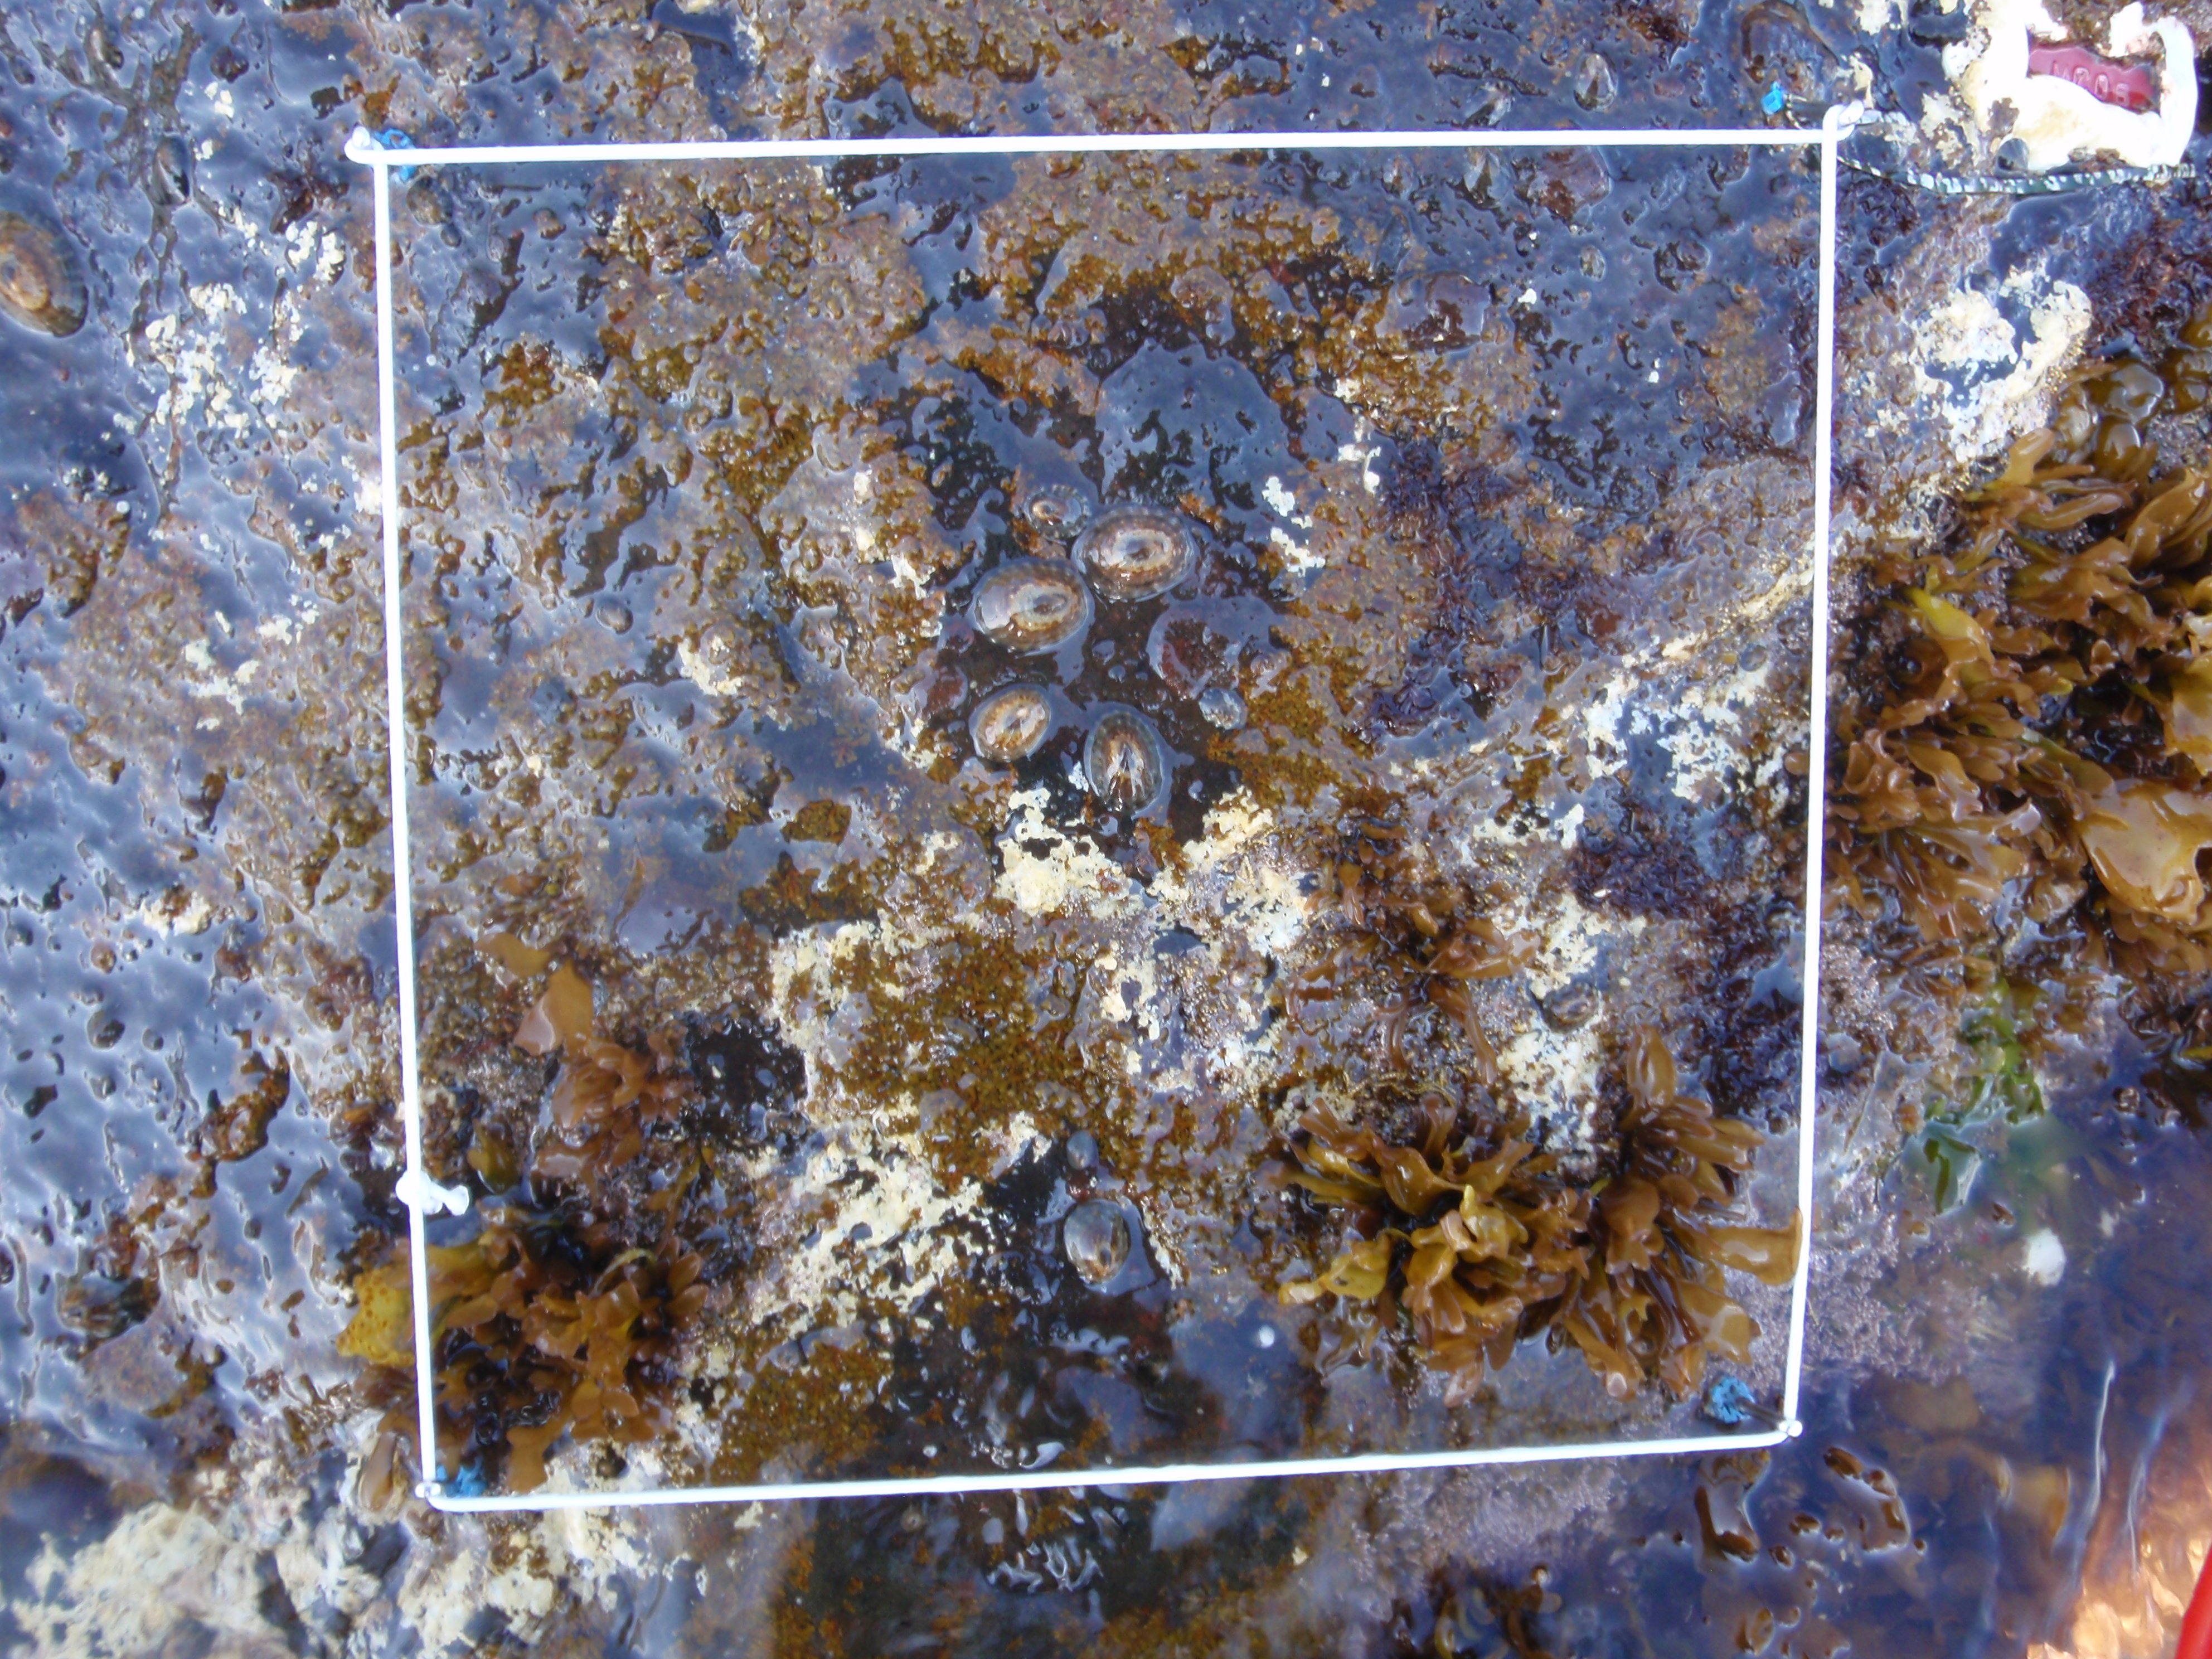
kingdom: Chromista
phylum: Ochrophyta
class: Phaeophyceae
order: Scytosiphonales
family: Scytosiphonaceae
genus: Analipus
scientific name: Analipus japonicus
